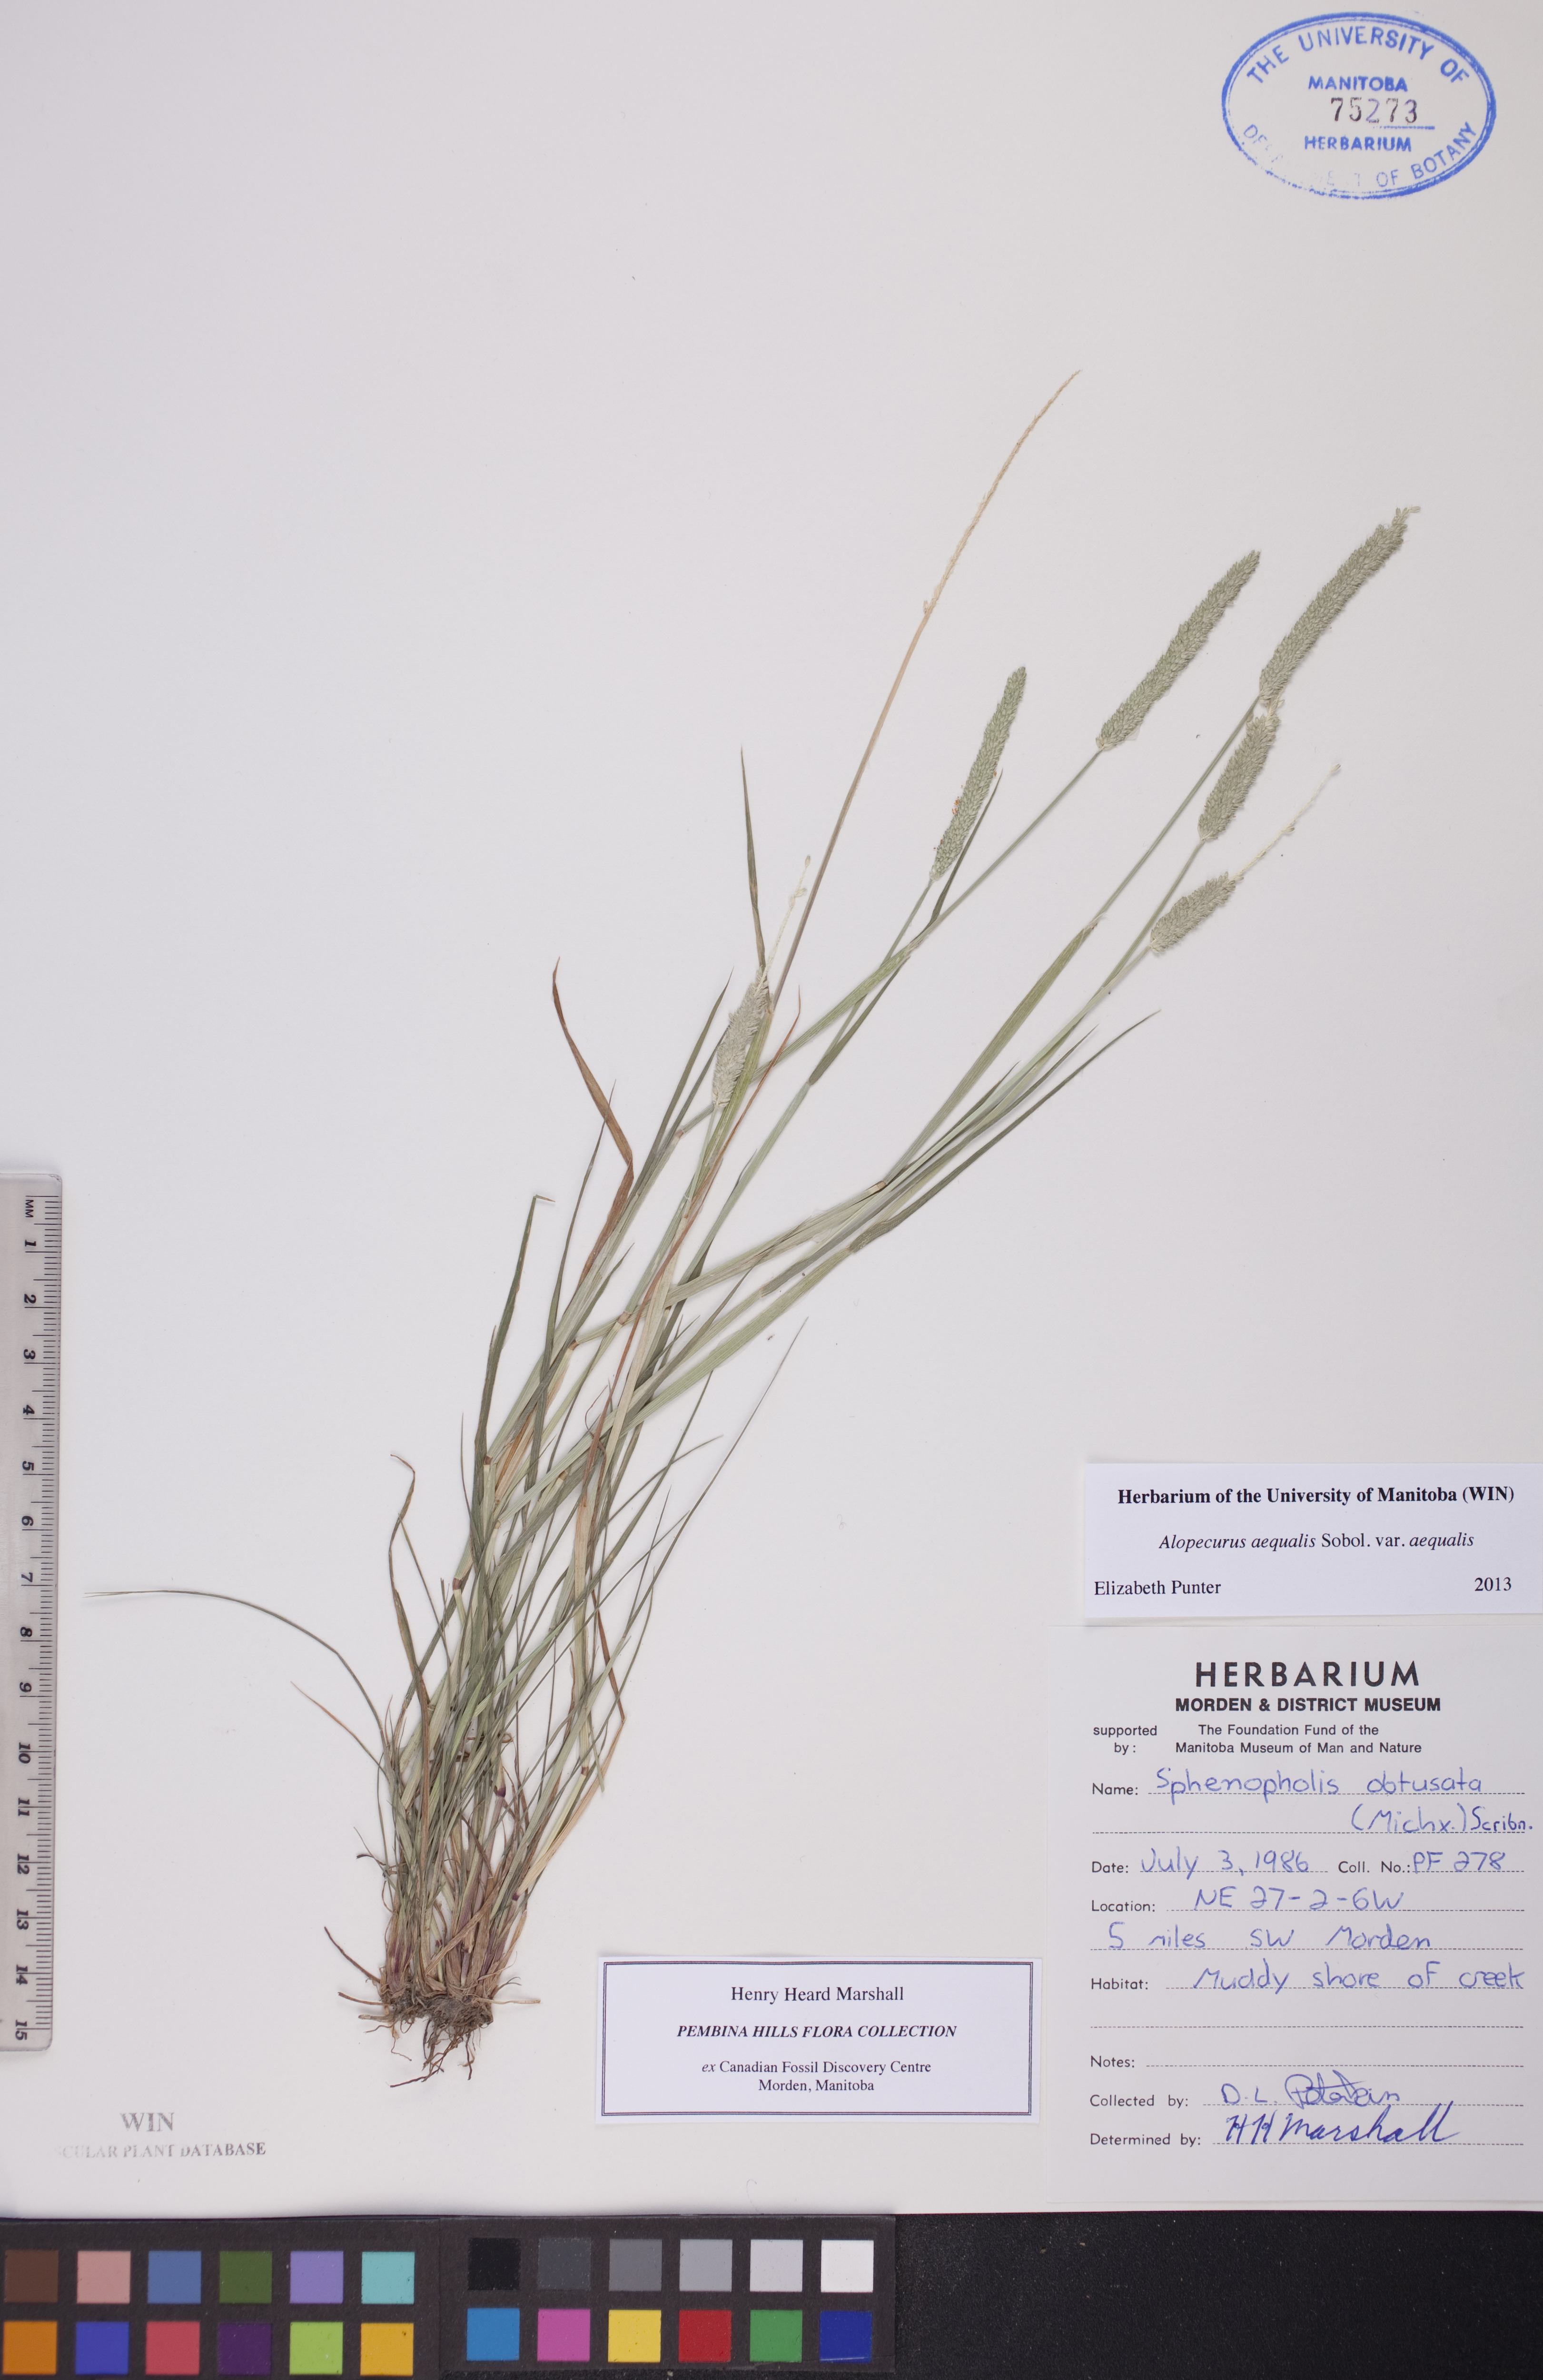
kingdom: Plantae
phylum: Tracheophyta
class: Liliopsida
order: Poales
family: Poaceae
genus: Alopecurus
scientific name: Alopecurus aequalis
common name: Orange foxtail
